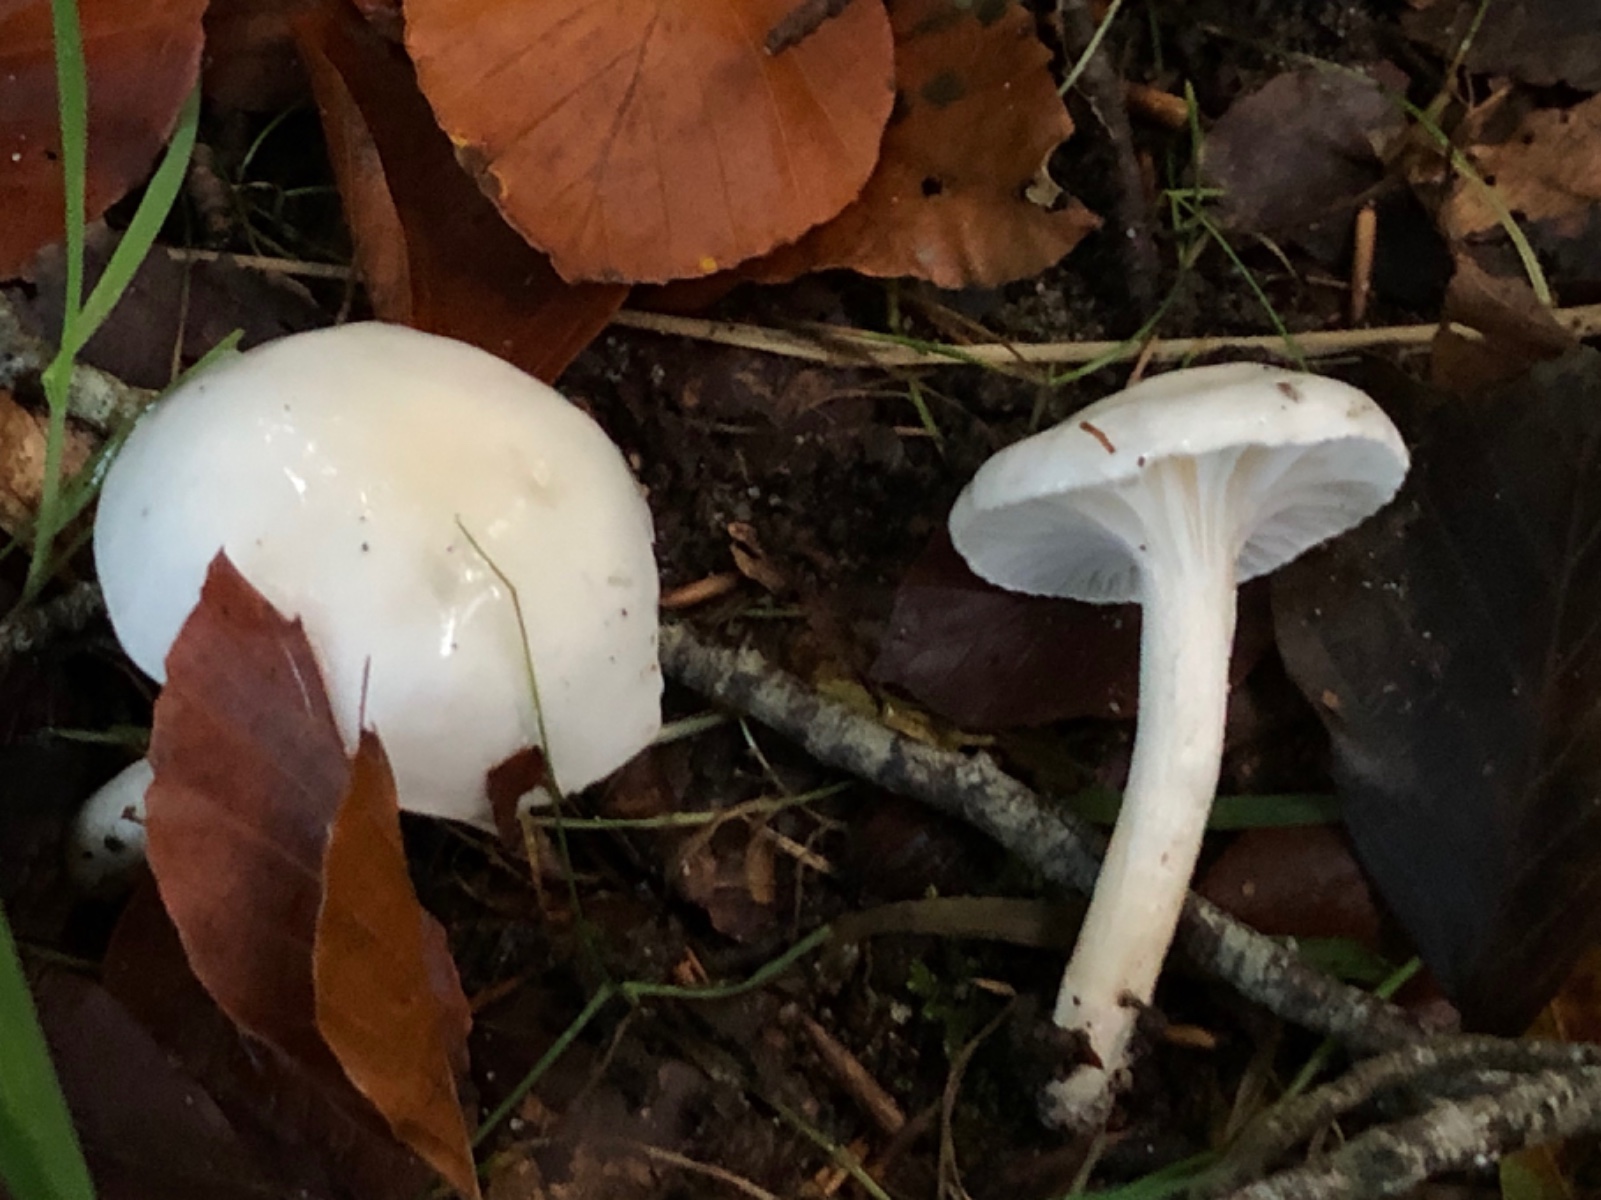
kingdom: Fungi
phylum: Basidiomycota
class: Agaricomycetes
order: Agaricales
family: Hygrophoraceae
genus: Hygrophorus
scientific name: Hygrophorus eburneus
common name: elfenbens-sneglehat
